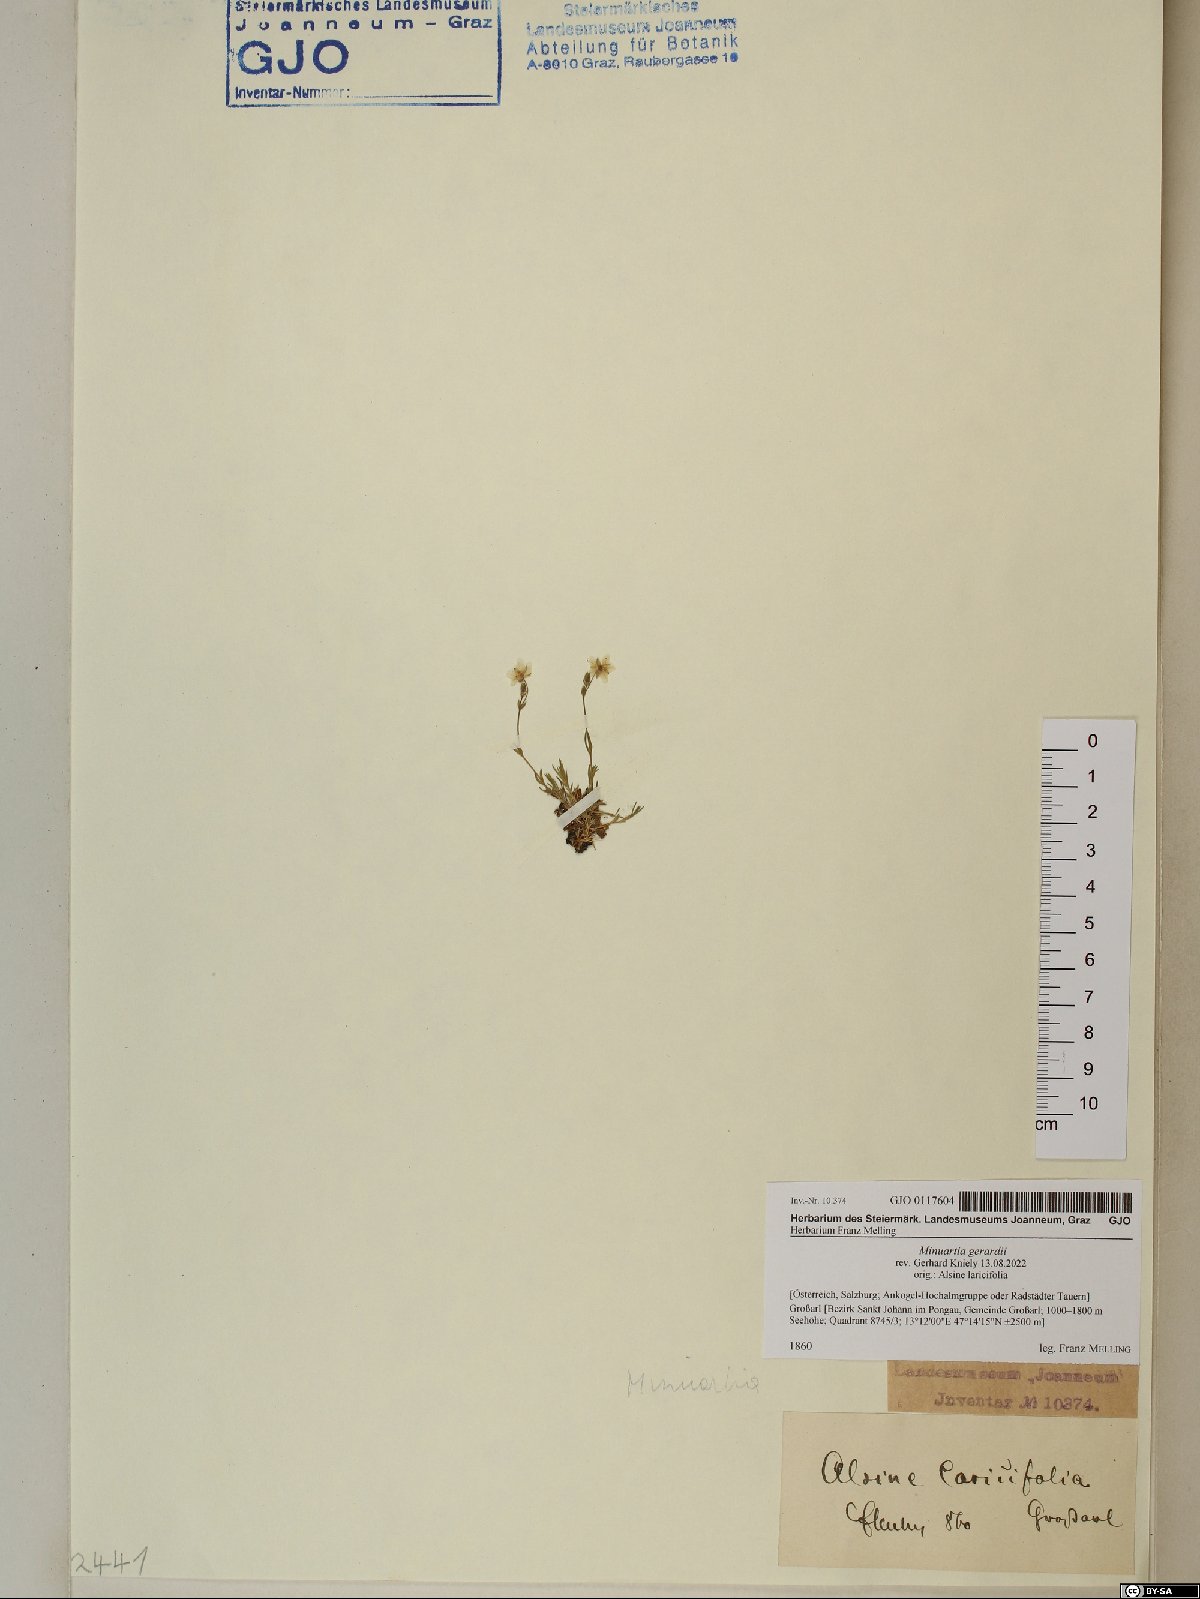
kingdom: Plantae
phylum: Tracheophyta
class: Magnoliopsida
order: Caryophyllales
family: Caryophyllaceae
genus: Sabulina
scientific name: Sabulina verna
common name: Spring sandwort
